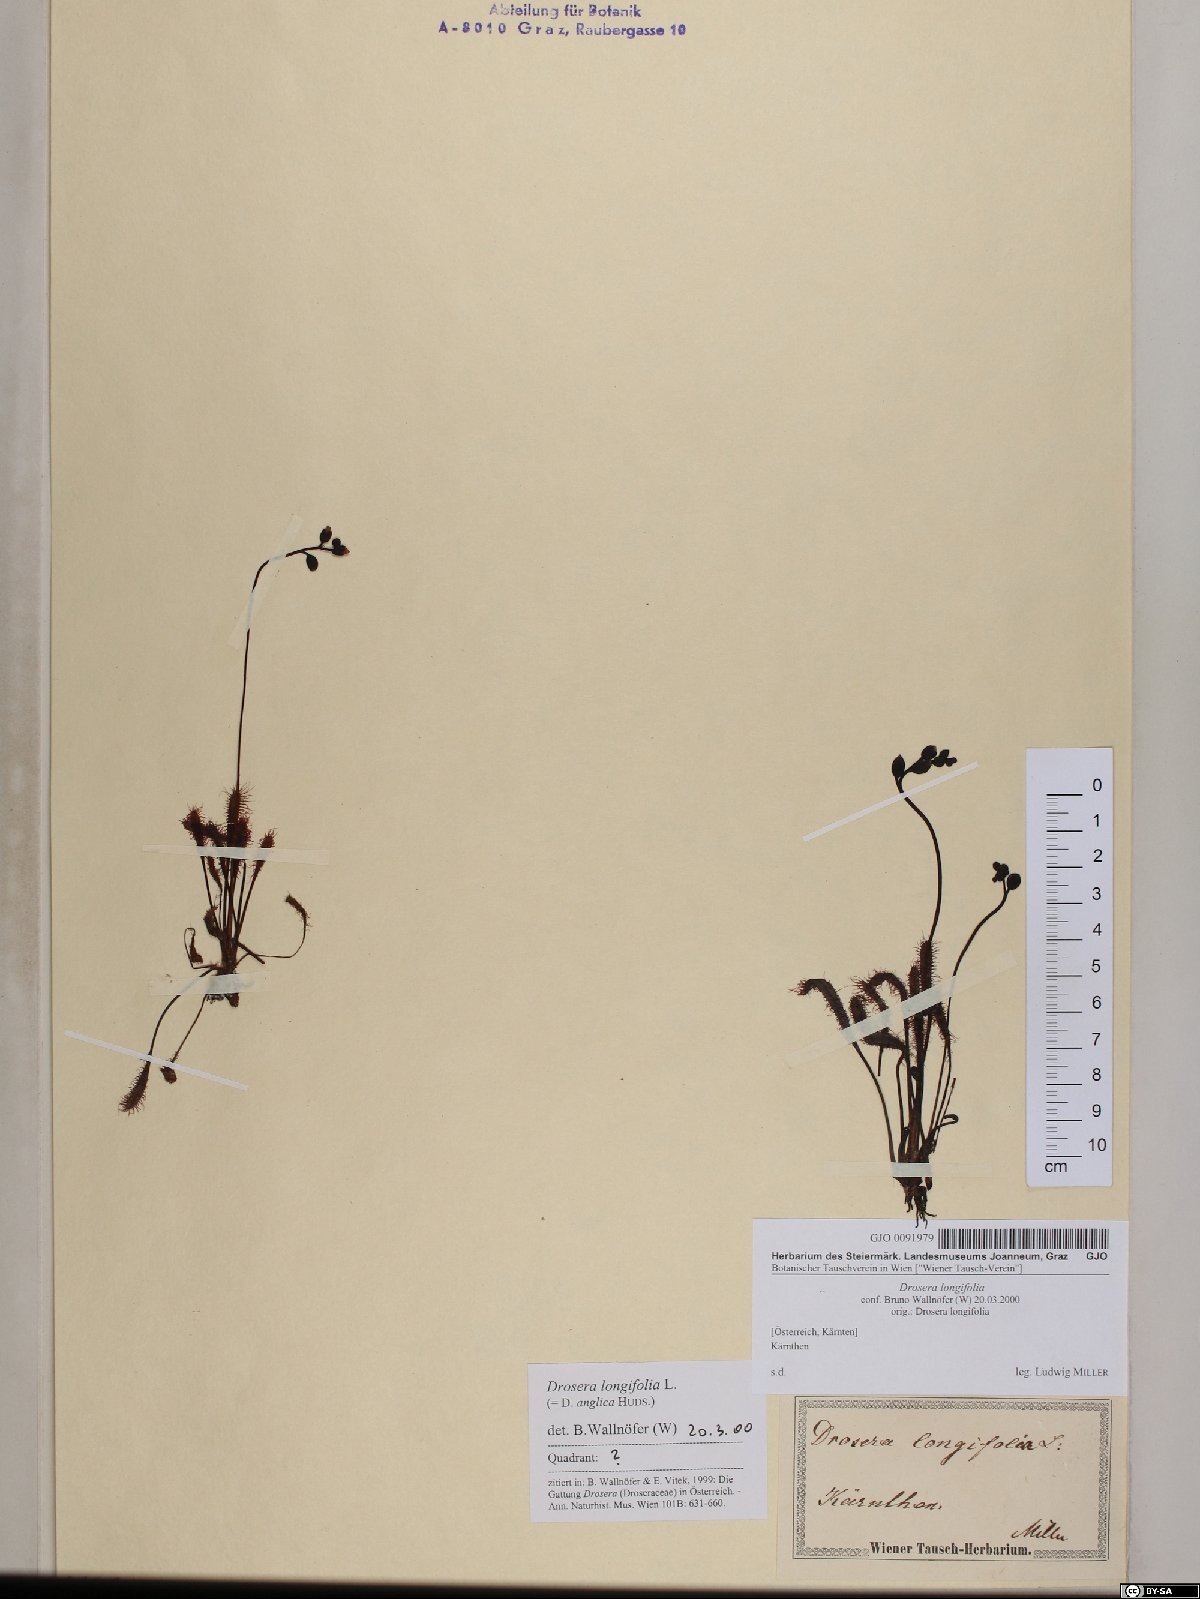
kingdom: Plantae
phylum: Tracheophyta
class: Magnoliopsida
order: Caryophyllales
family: Droseraceae
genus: Drosera
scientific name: Drosera anglica
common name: Great sundew
